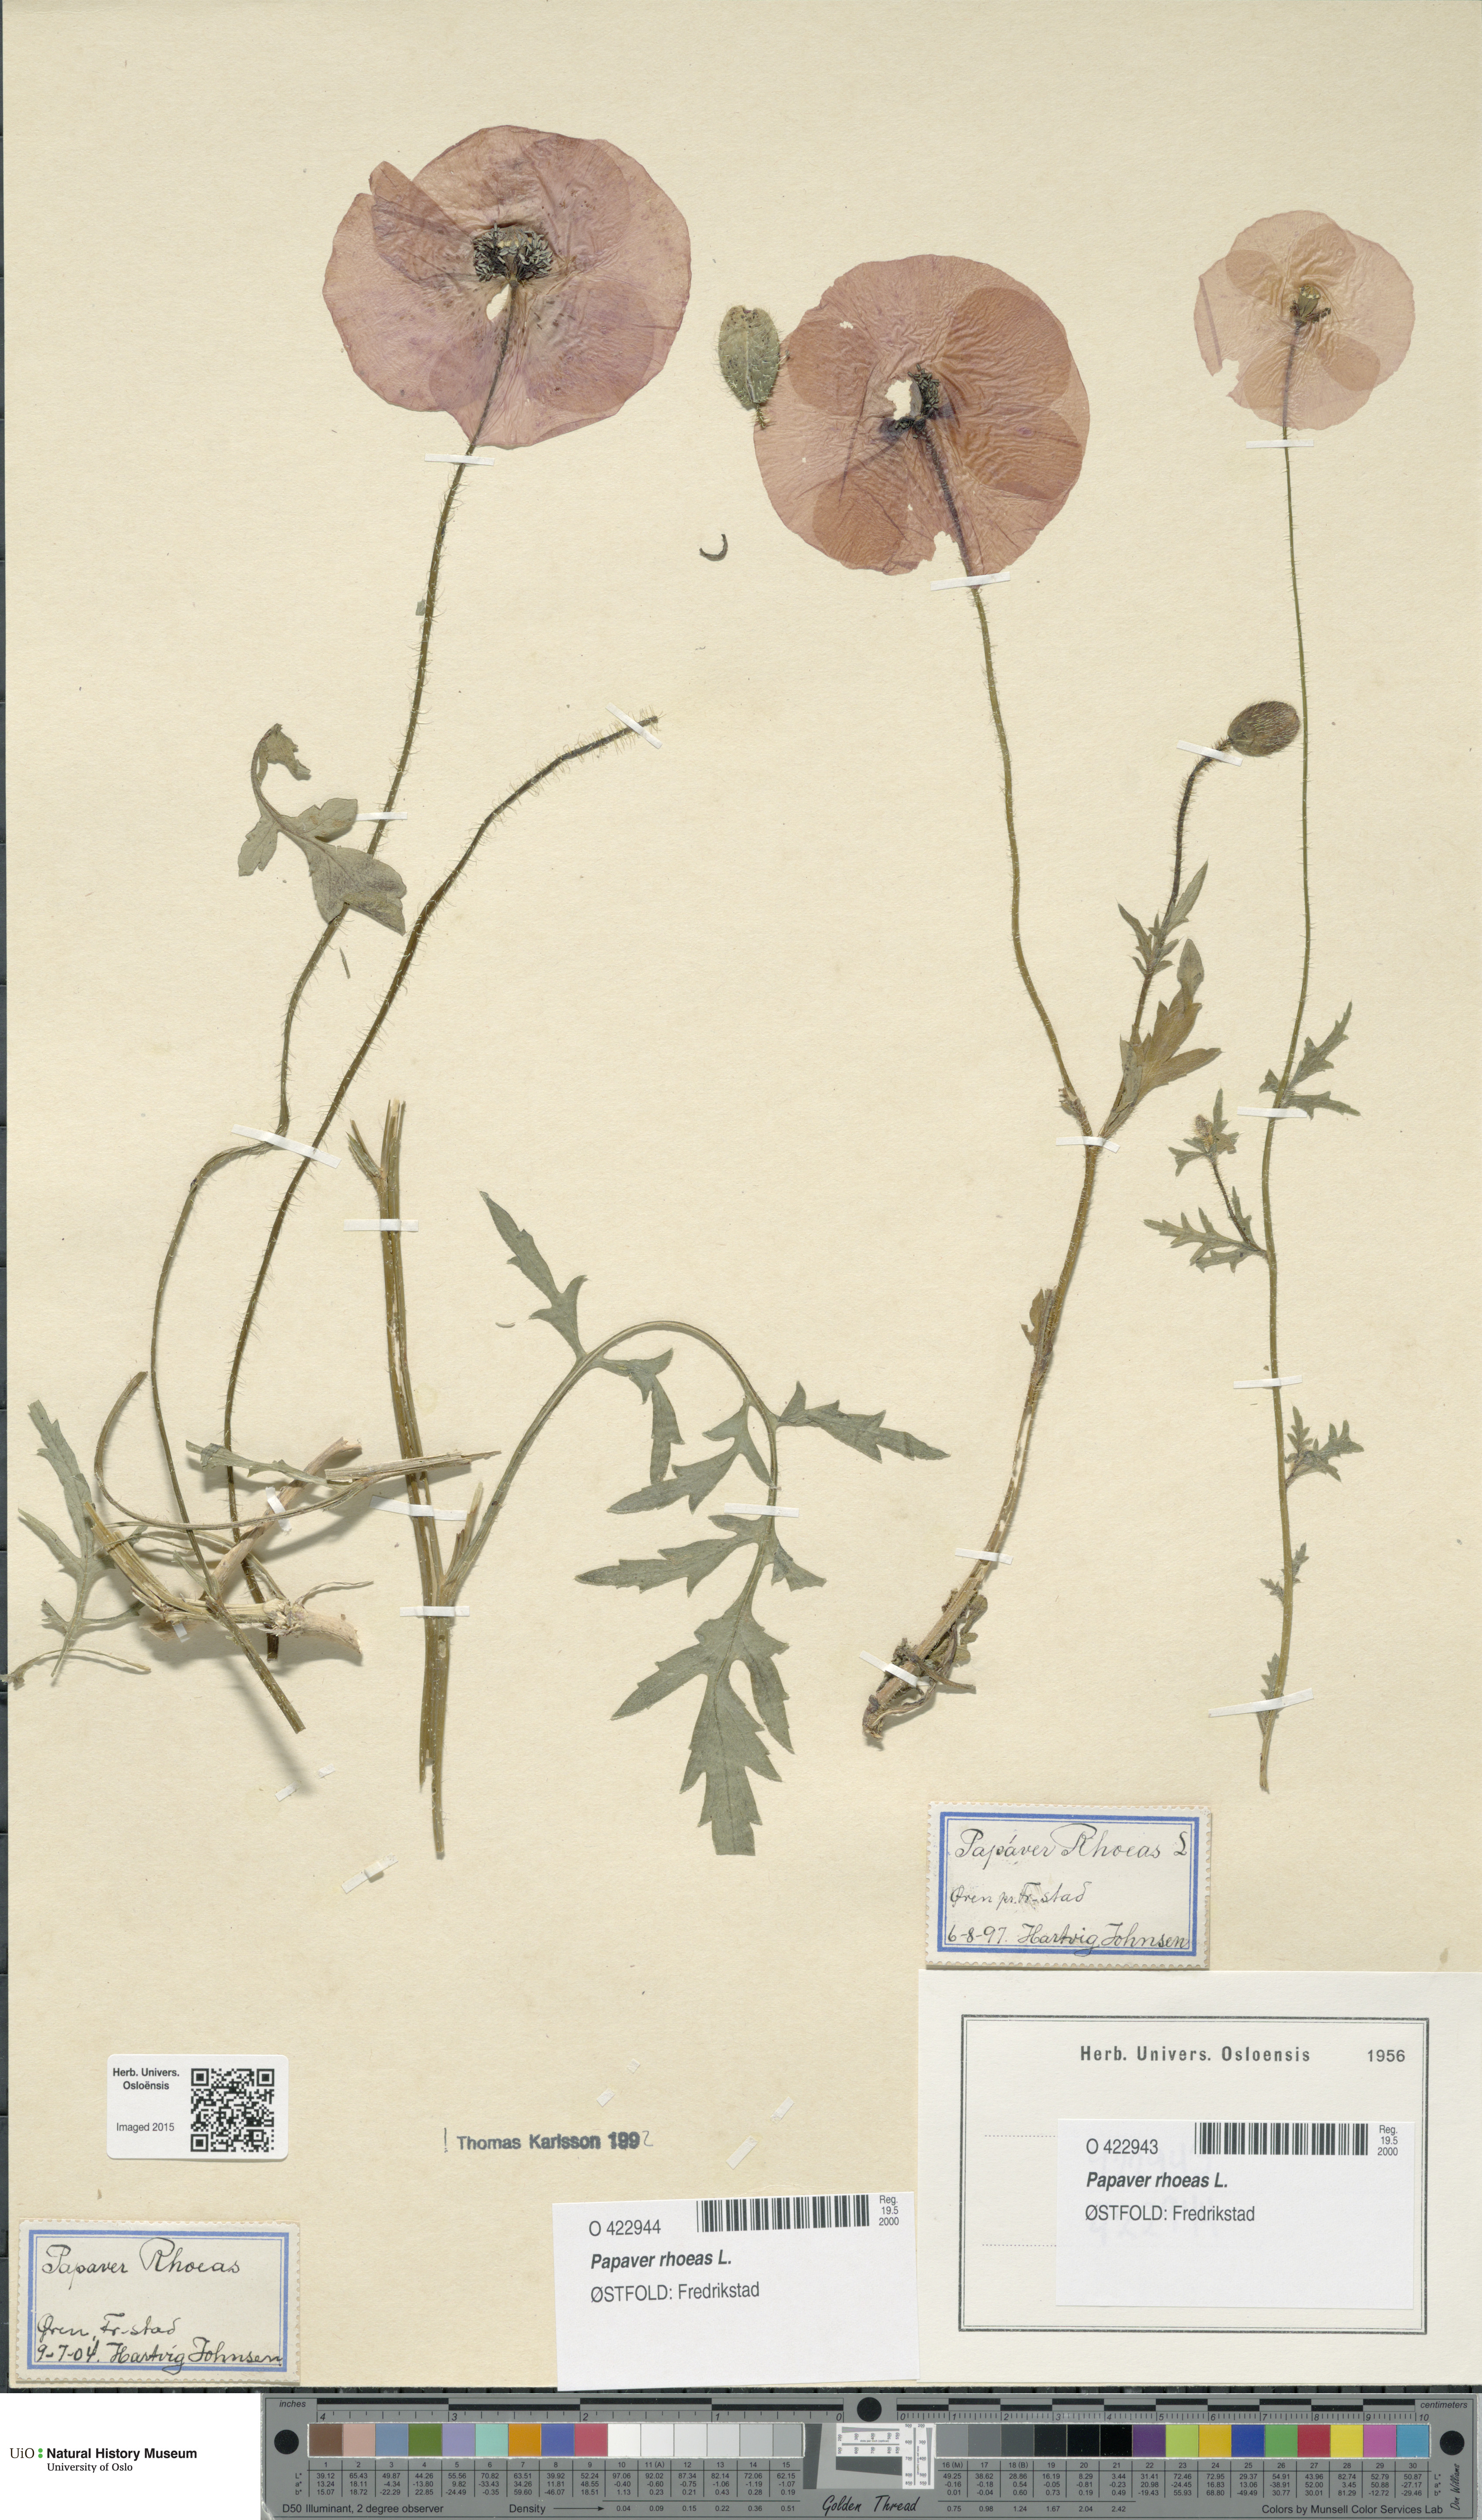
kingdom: Plantae
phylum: Tracheophyta
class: Magnoliopsida
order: Ranunculales
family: Papaveraceae
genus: Papaver
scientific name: Papaver rhoeas
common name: Corn poppy
